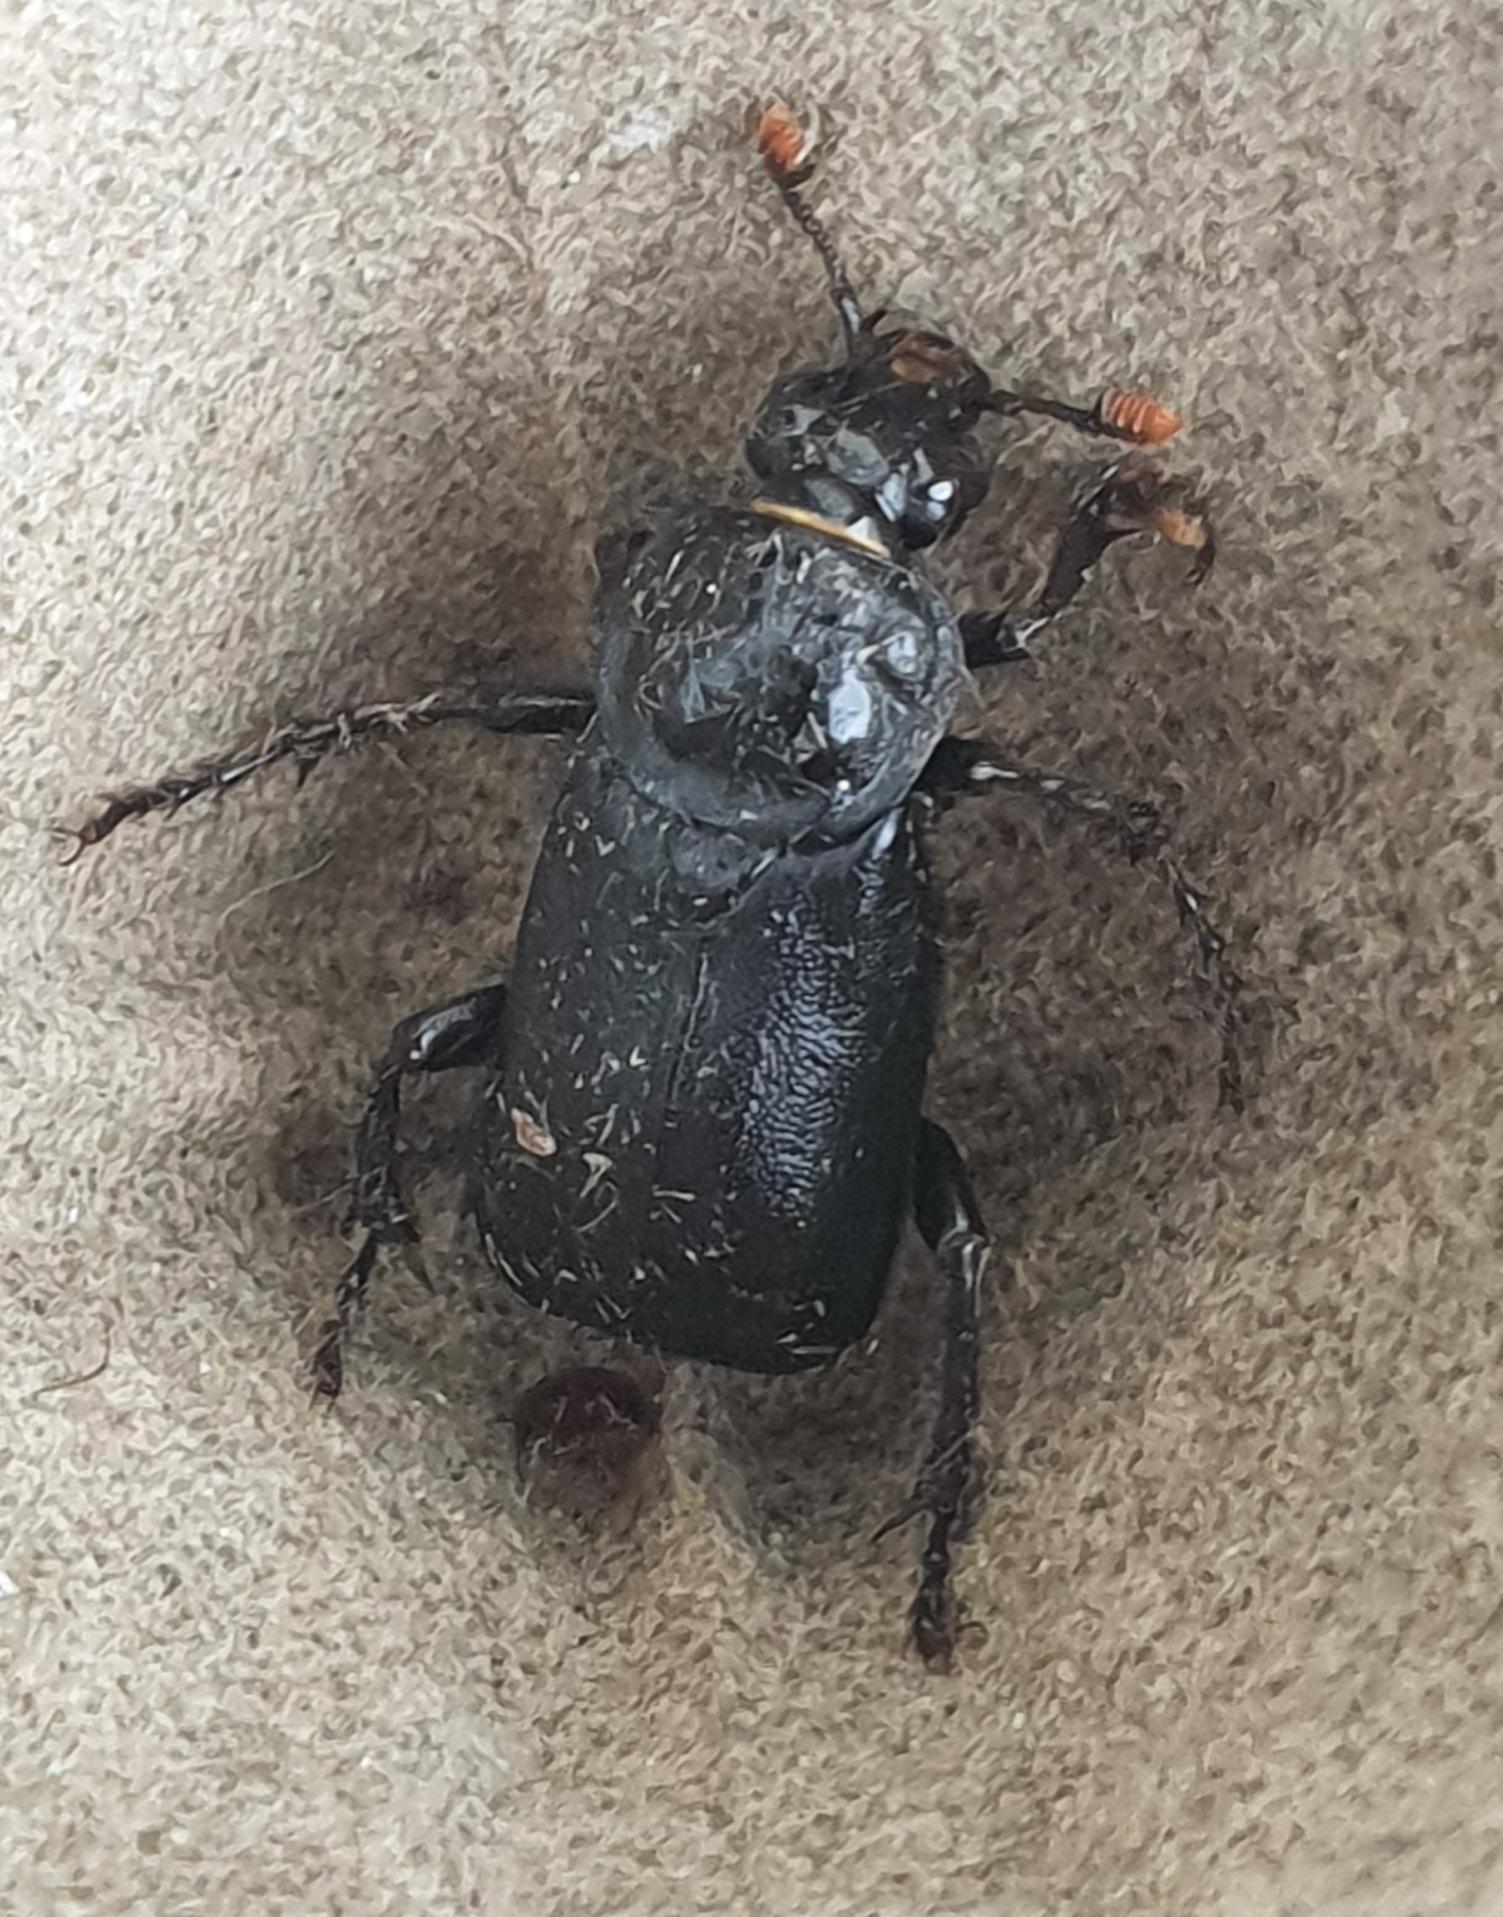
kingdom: Animalia
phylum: Arthropoda
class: Insecta
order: Coleoptera
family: Staphylinidae
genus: Nicrophorus
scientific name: Nicrophorus humator
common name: Sort ådselgraver
